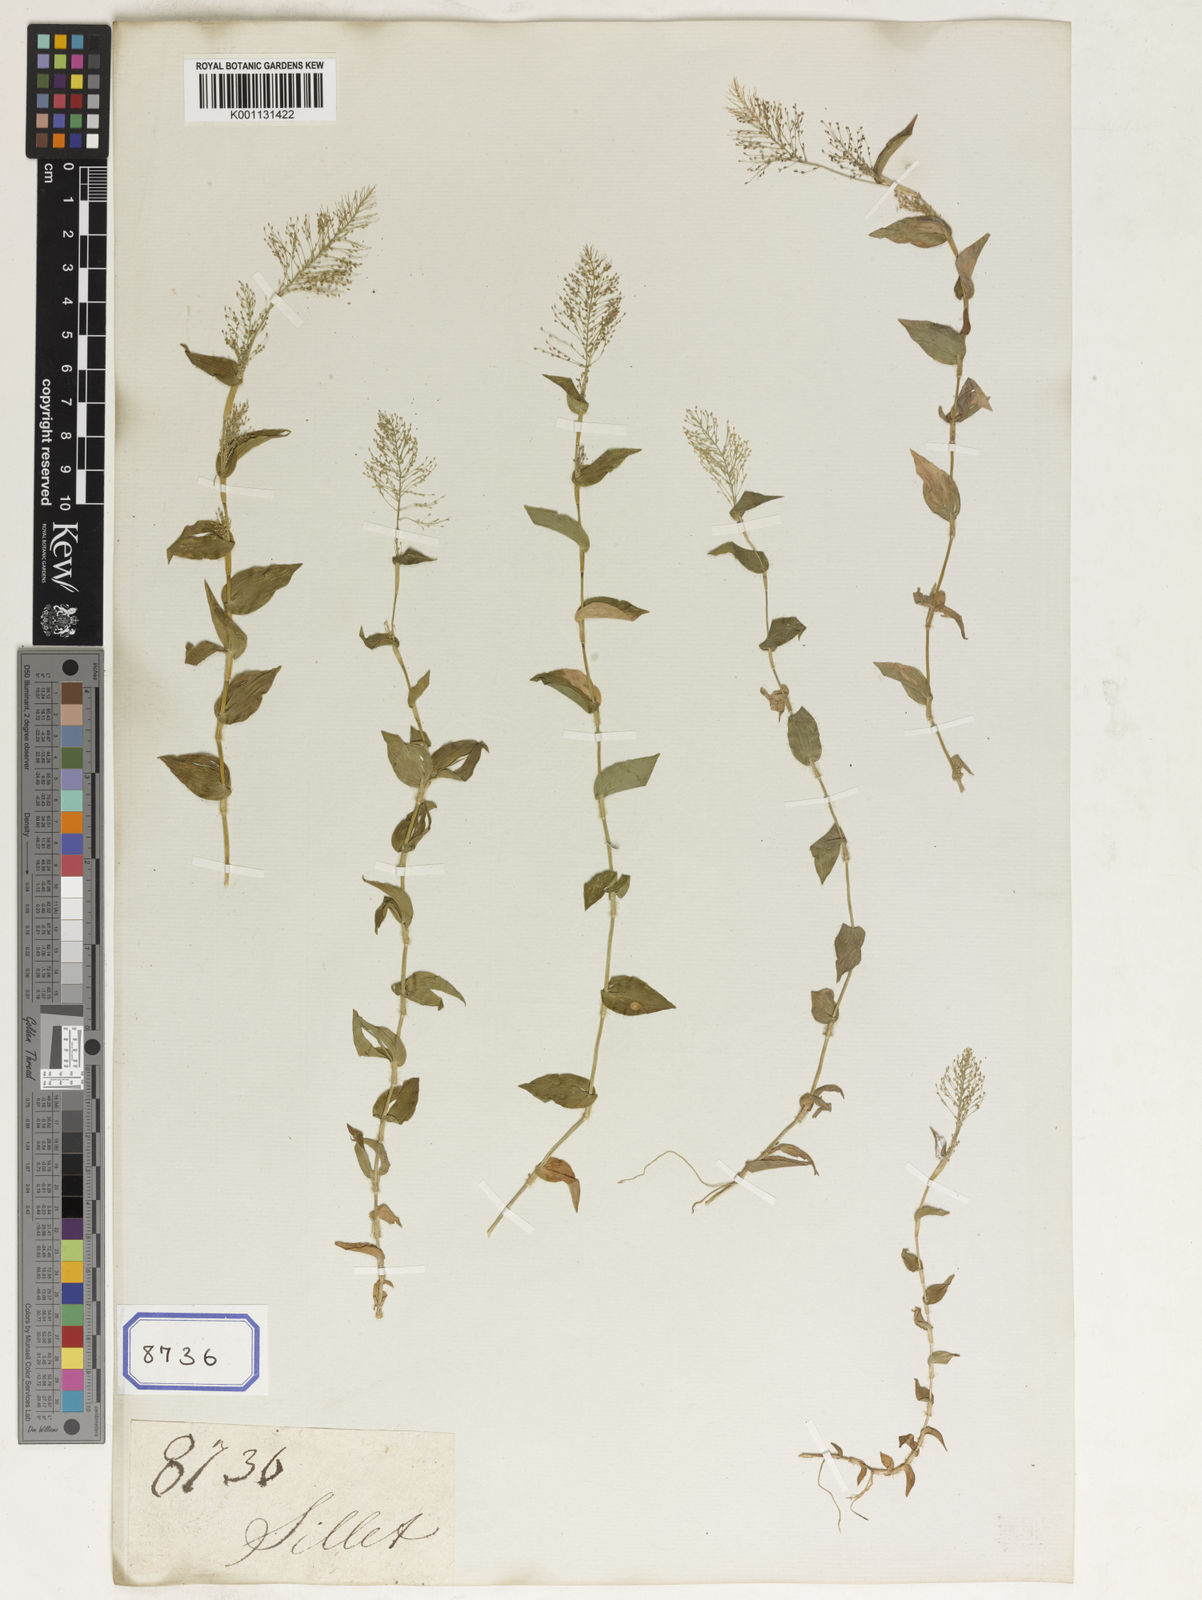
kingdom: Plantae
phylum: Tracheophyta
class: Liliopsida
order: Poales
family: Poaceae
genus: Panicum
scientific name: Panicum
